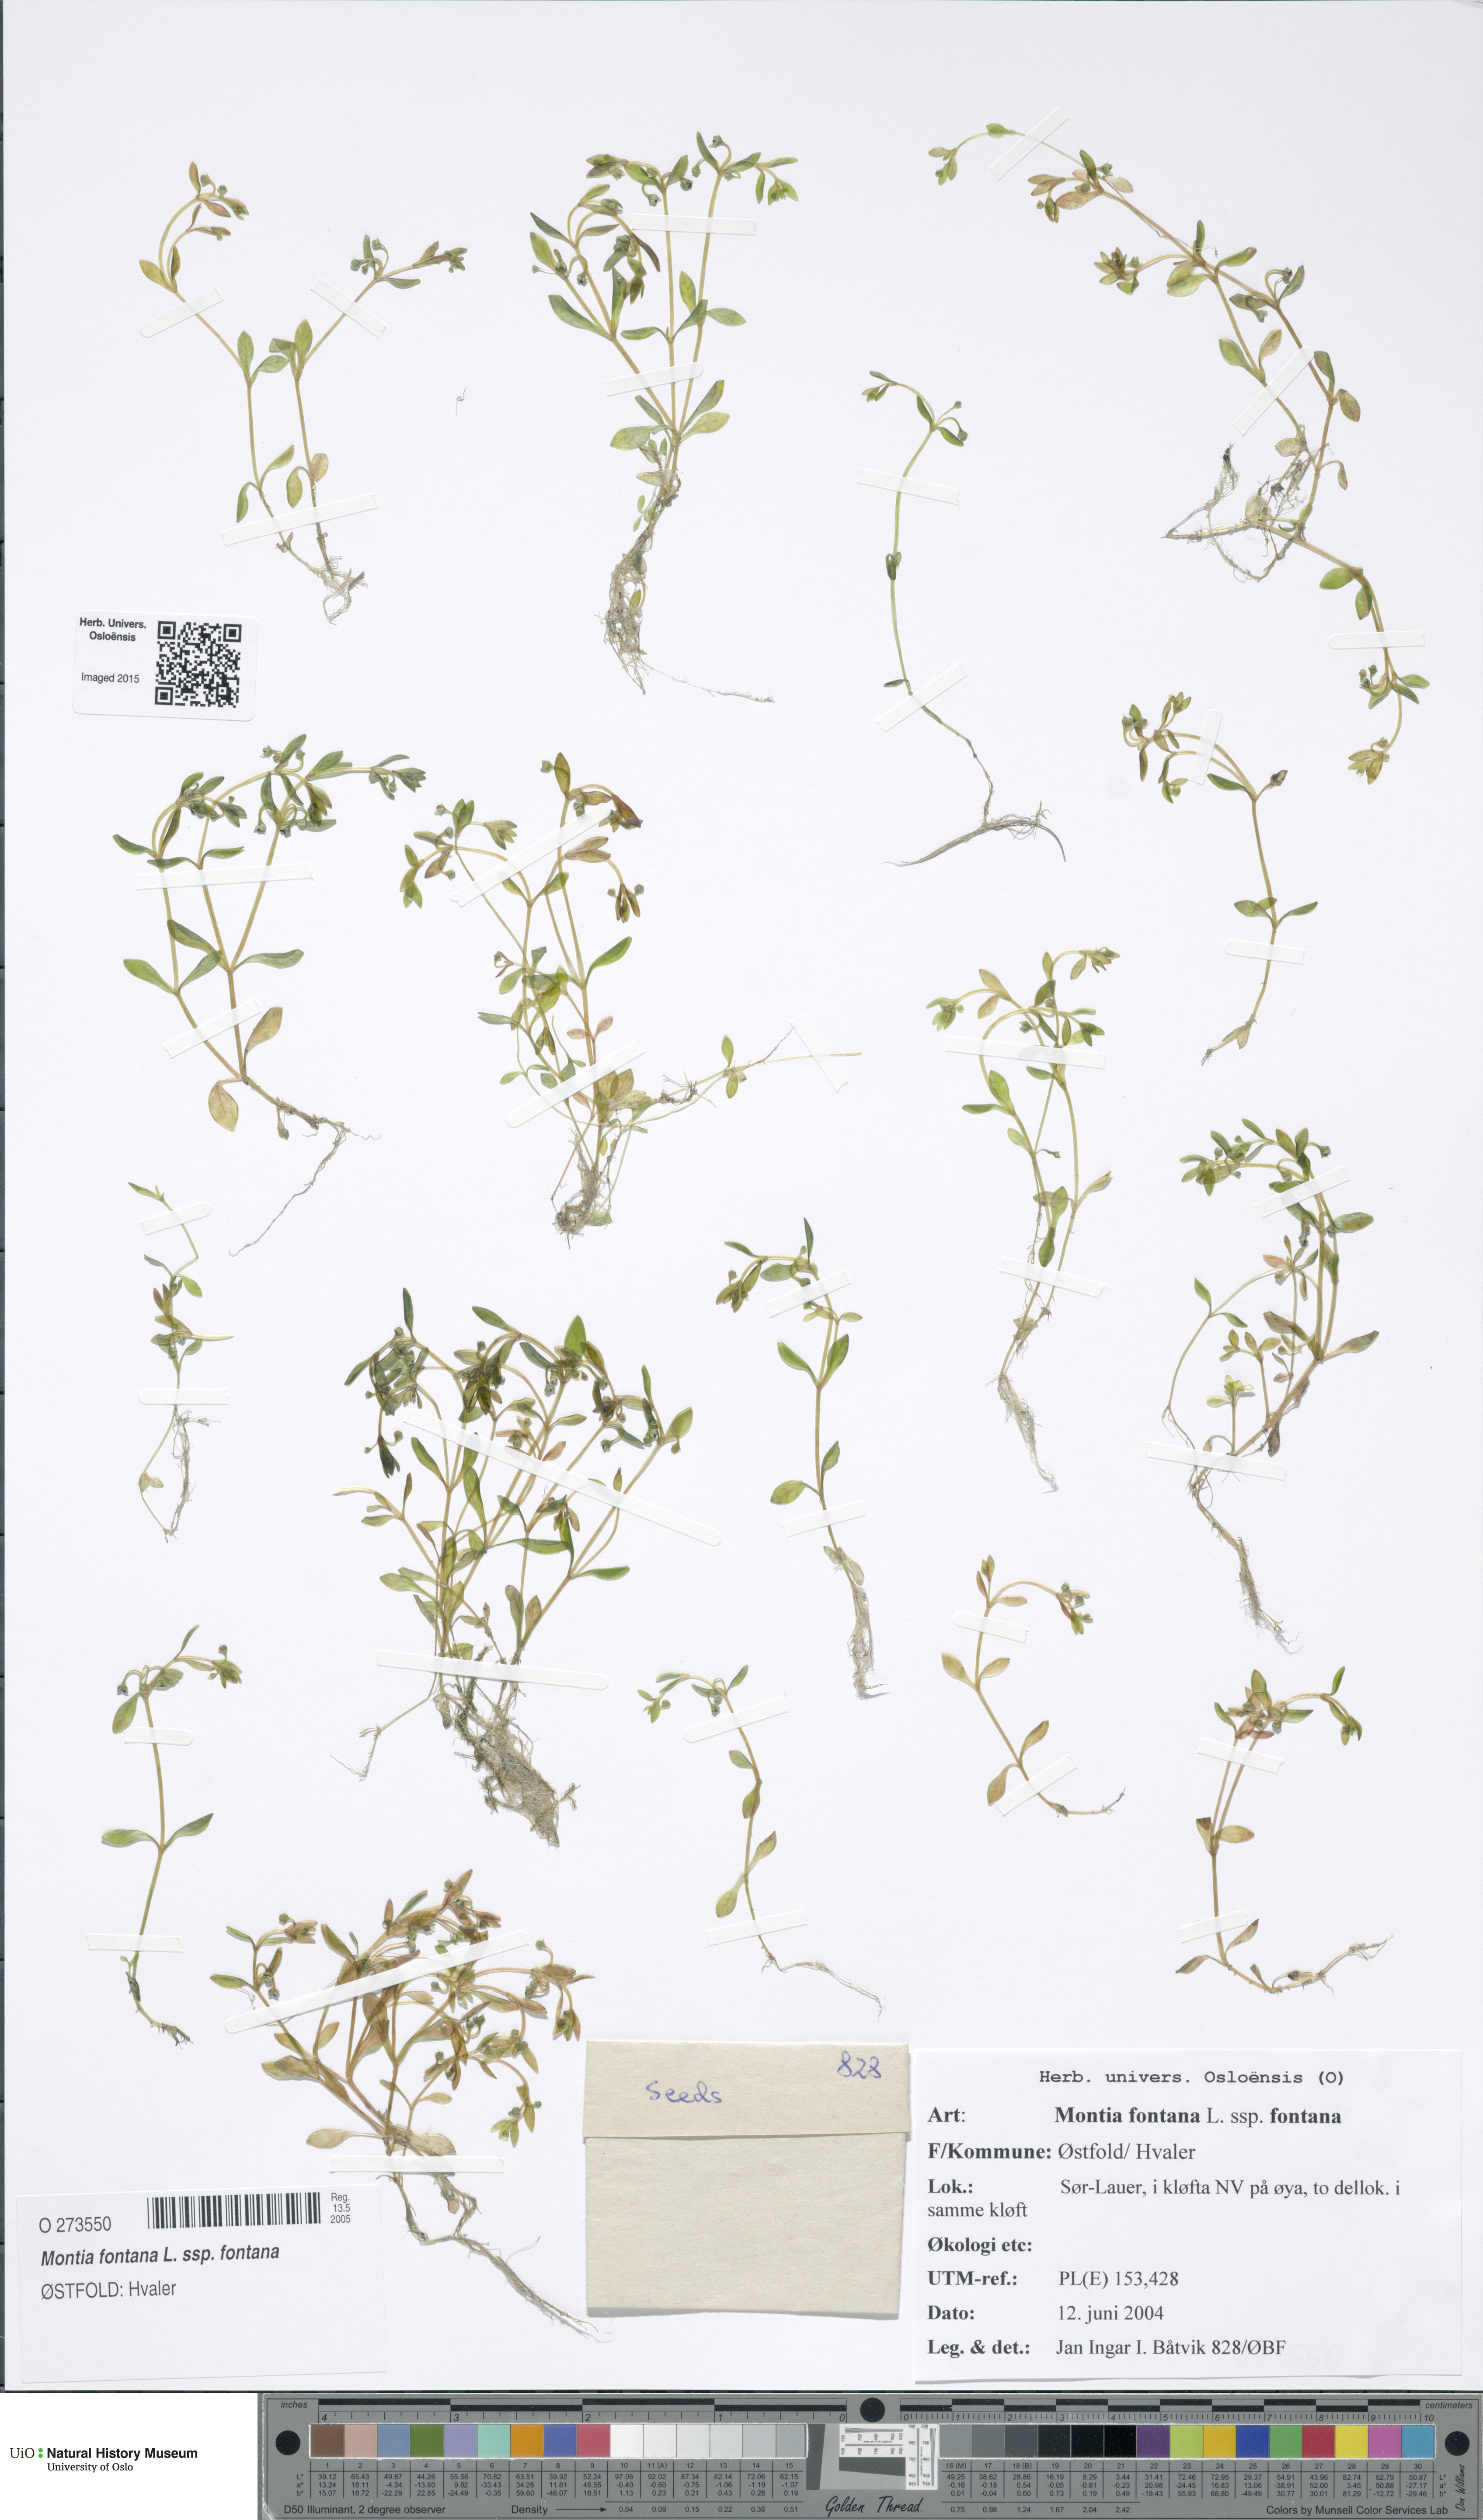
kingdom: Plantae
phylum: Tracheophyta
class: Magnoliopsida
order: Caryophyllales
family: Montiaceae
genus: Montia
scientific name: Montia fontana
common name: Blinks
